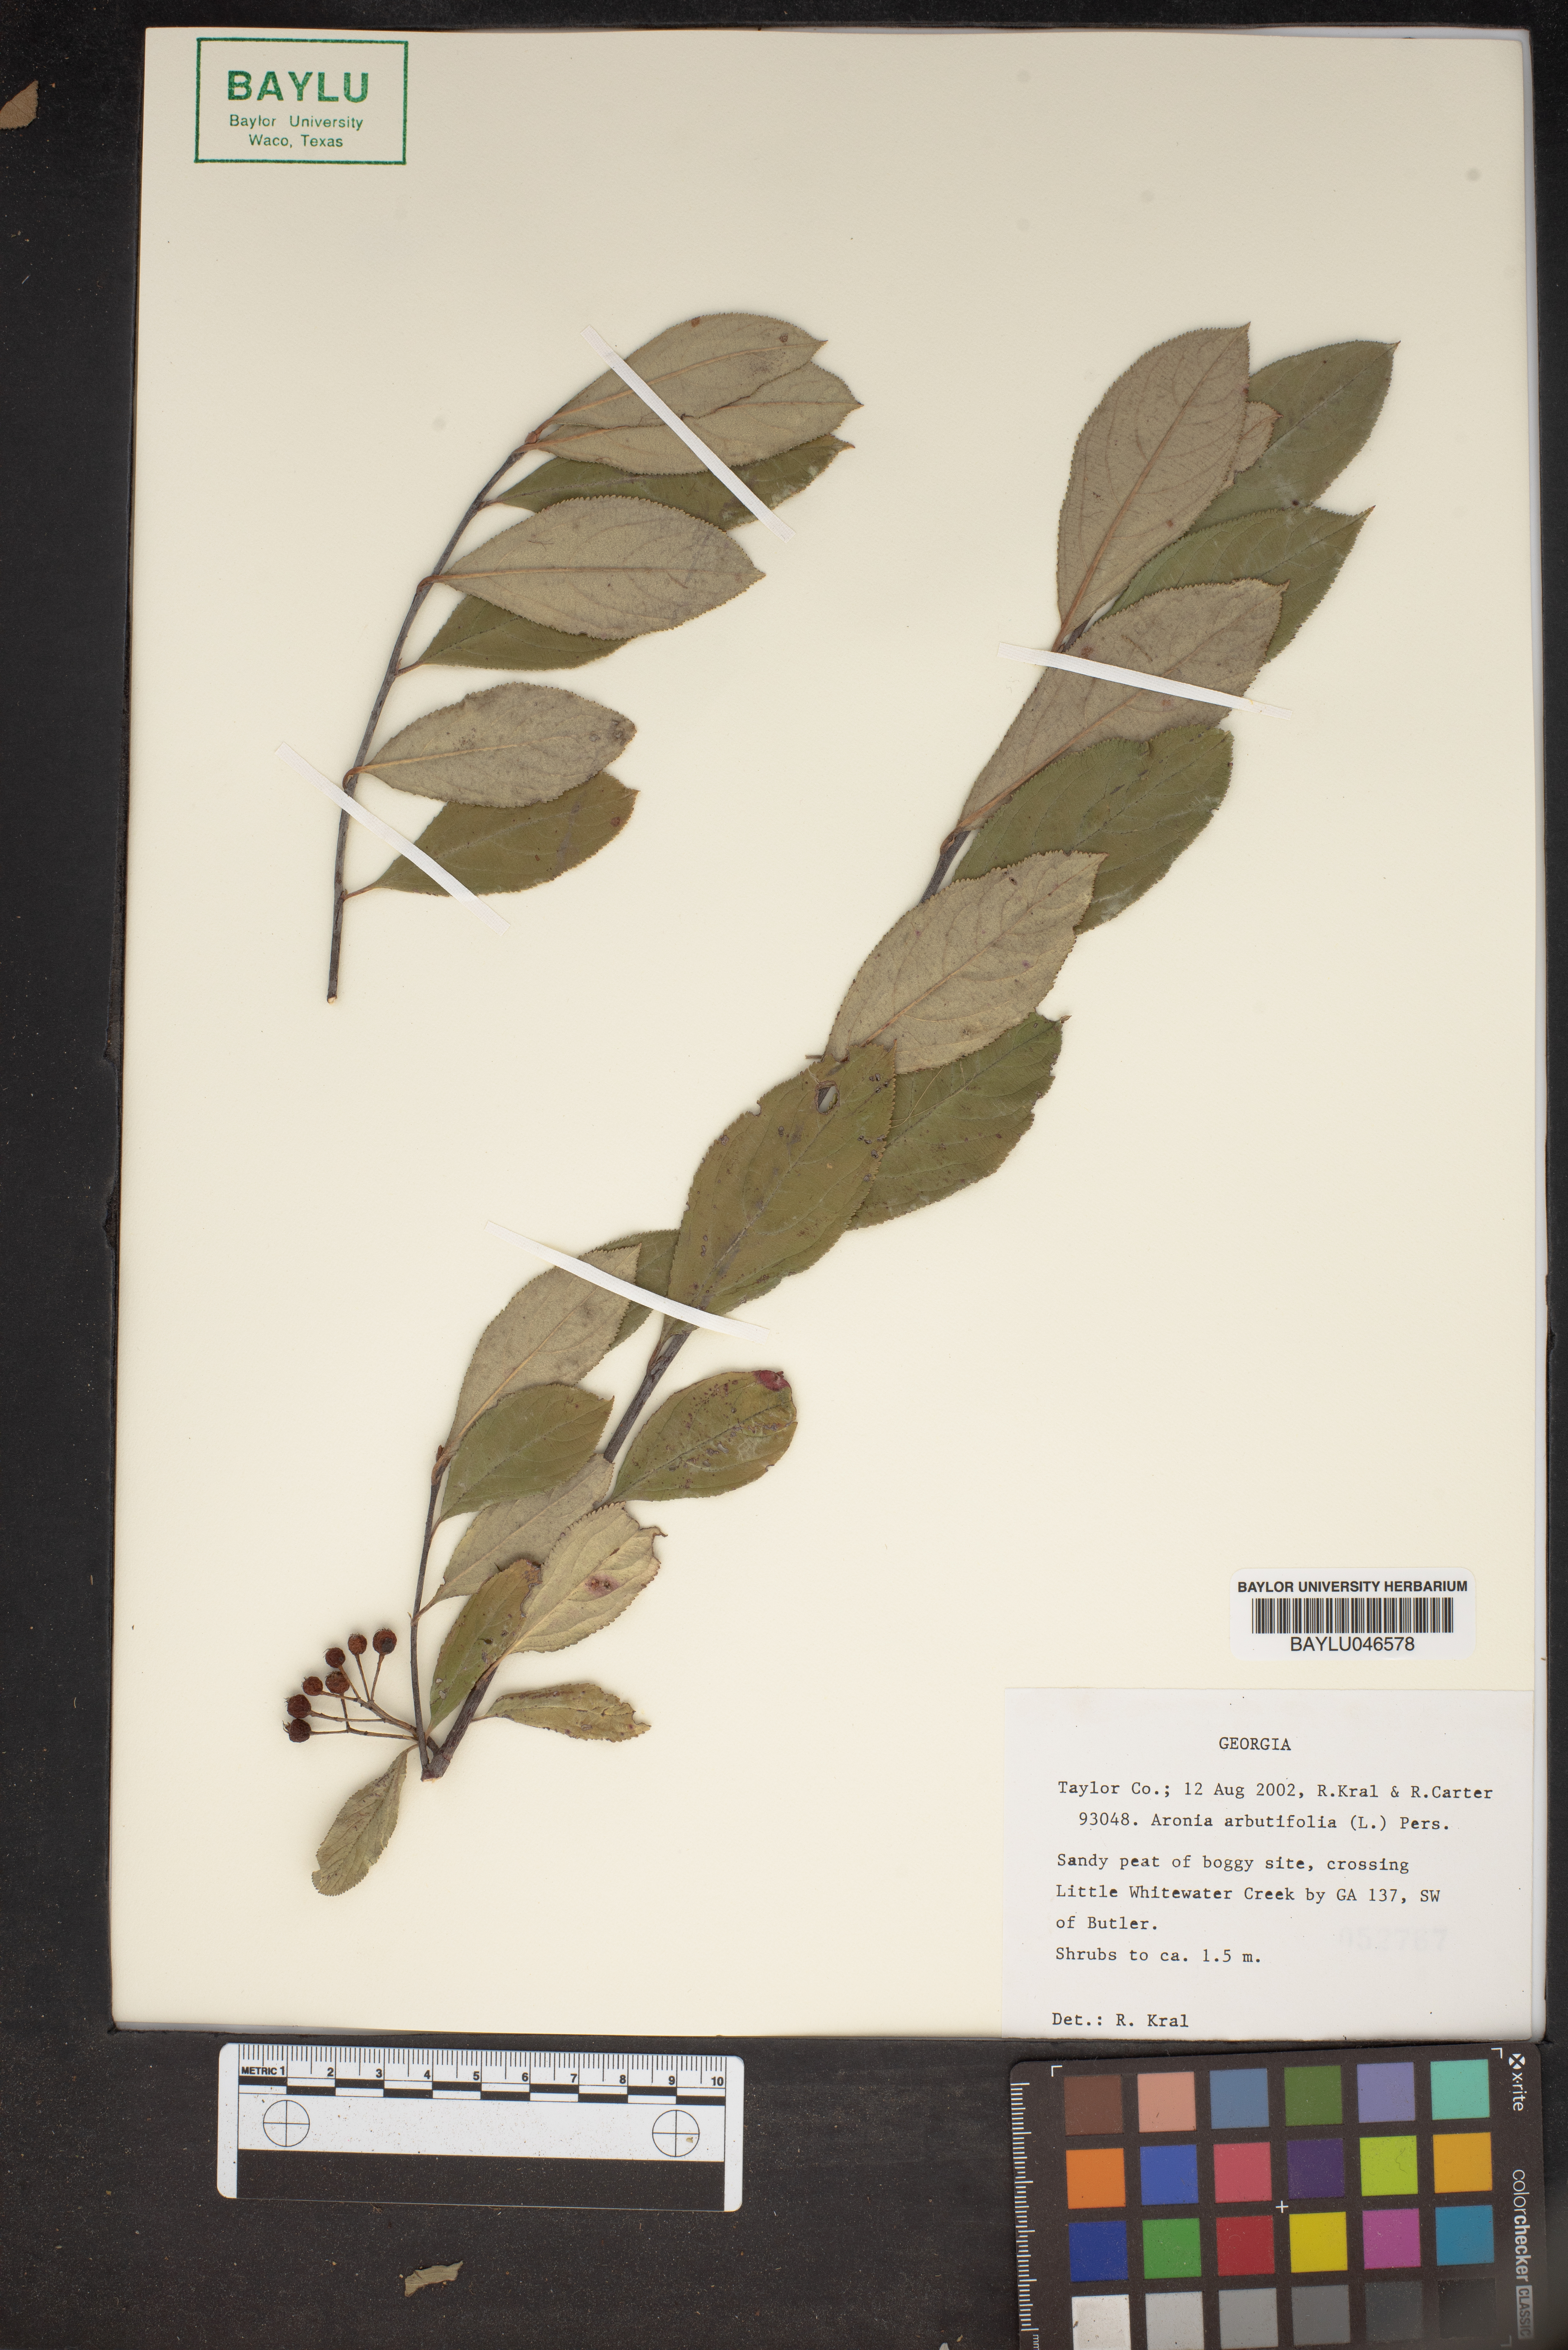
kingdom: Plantae
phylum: Tracheophyta
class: Magnoliopsida
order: Rosales
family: Rosaceae
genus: Aronia
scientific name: Aronia arbutifolia
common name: Red chokeberry
